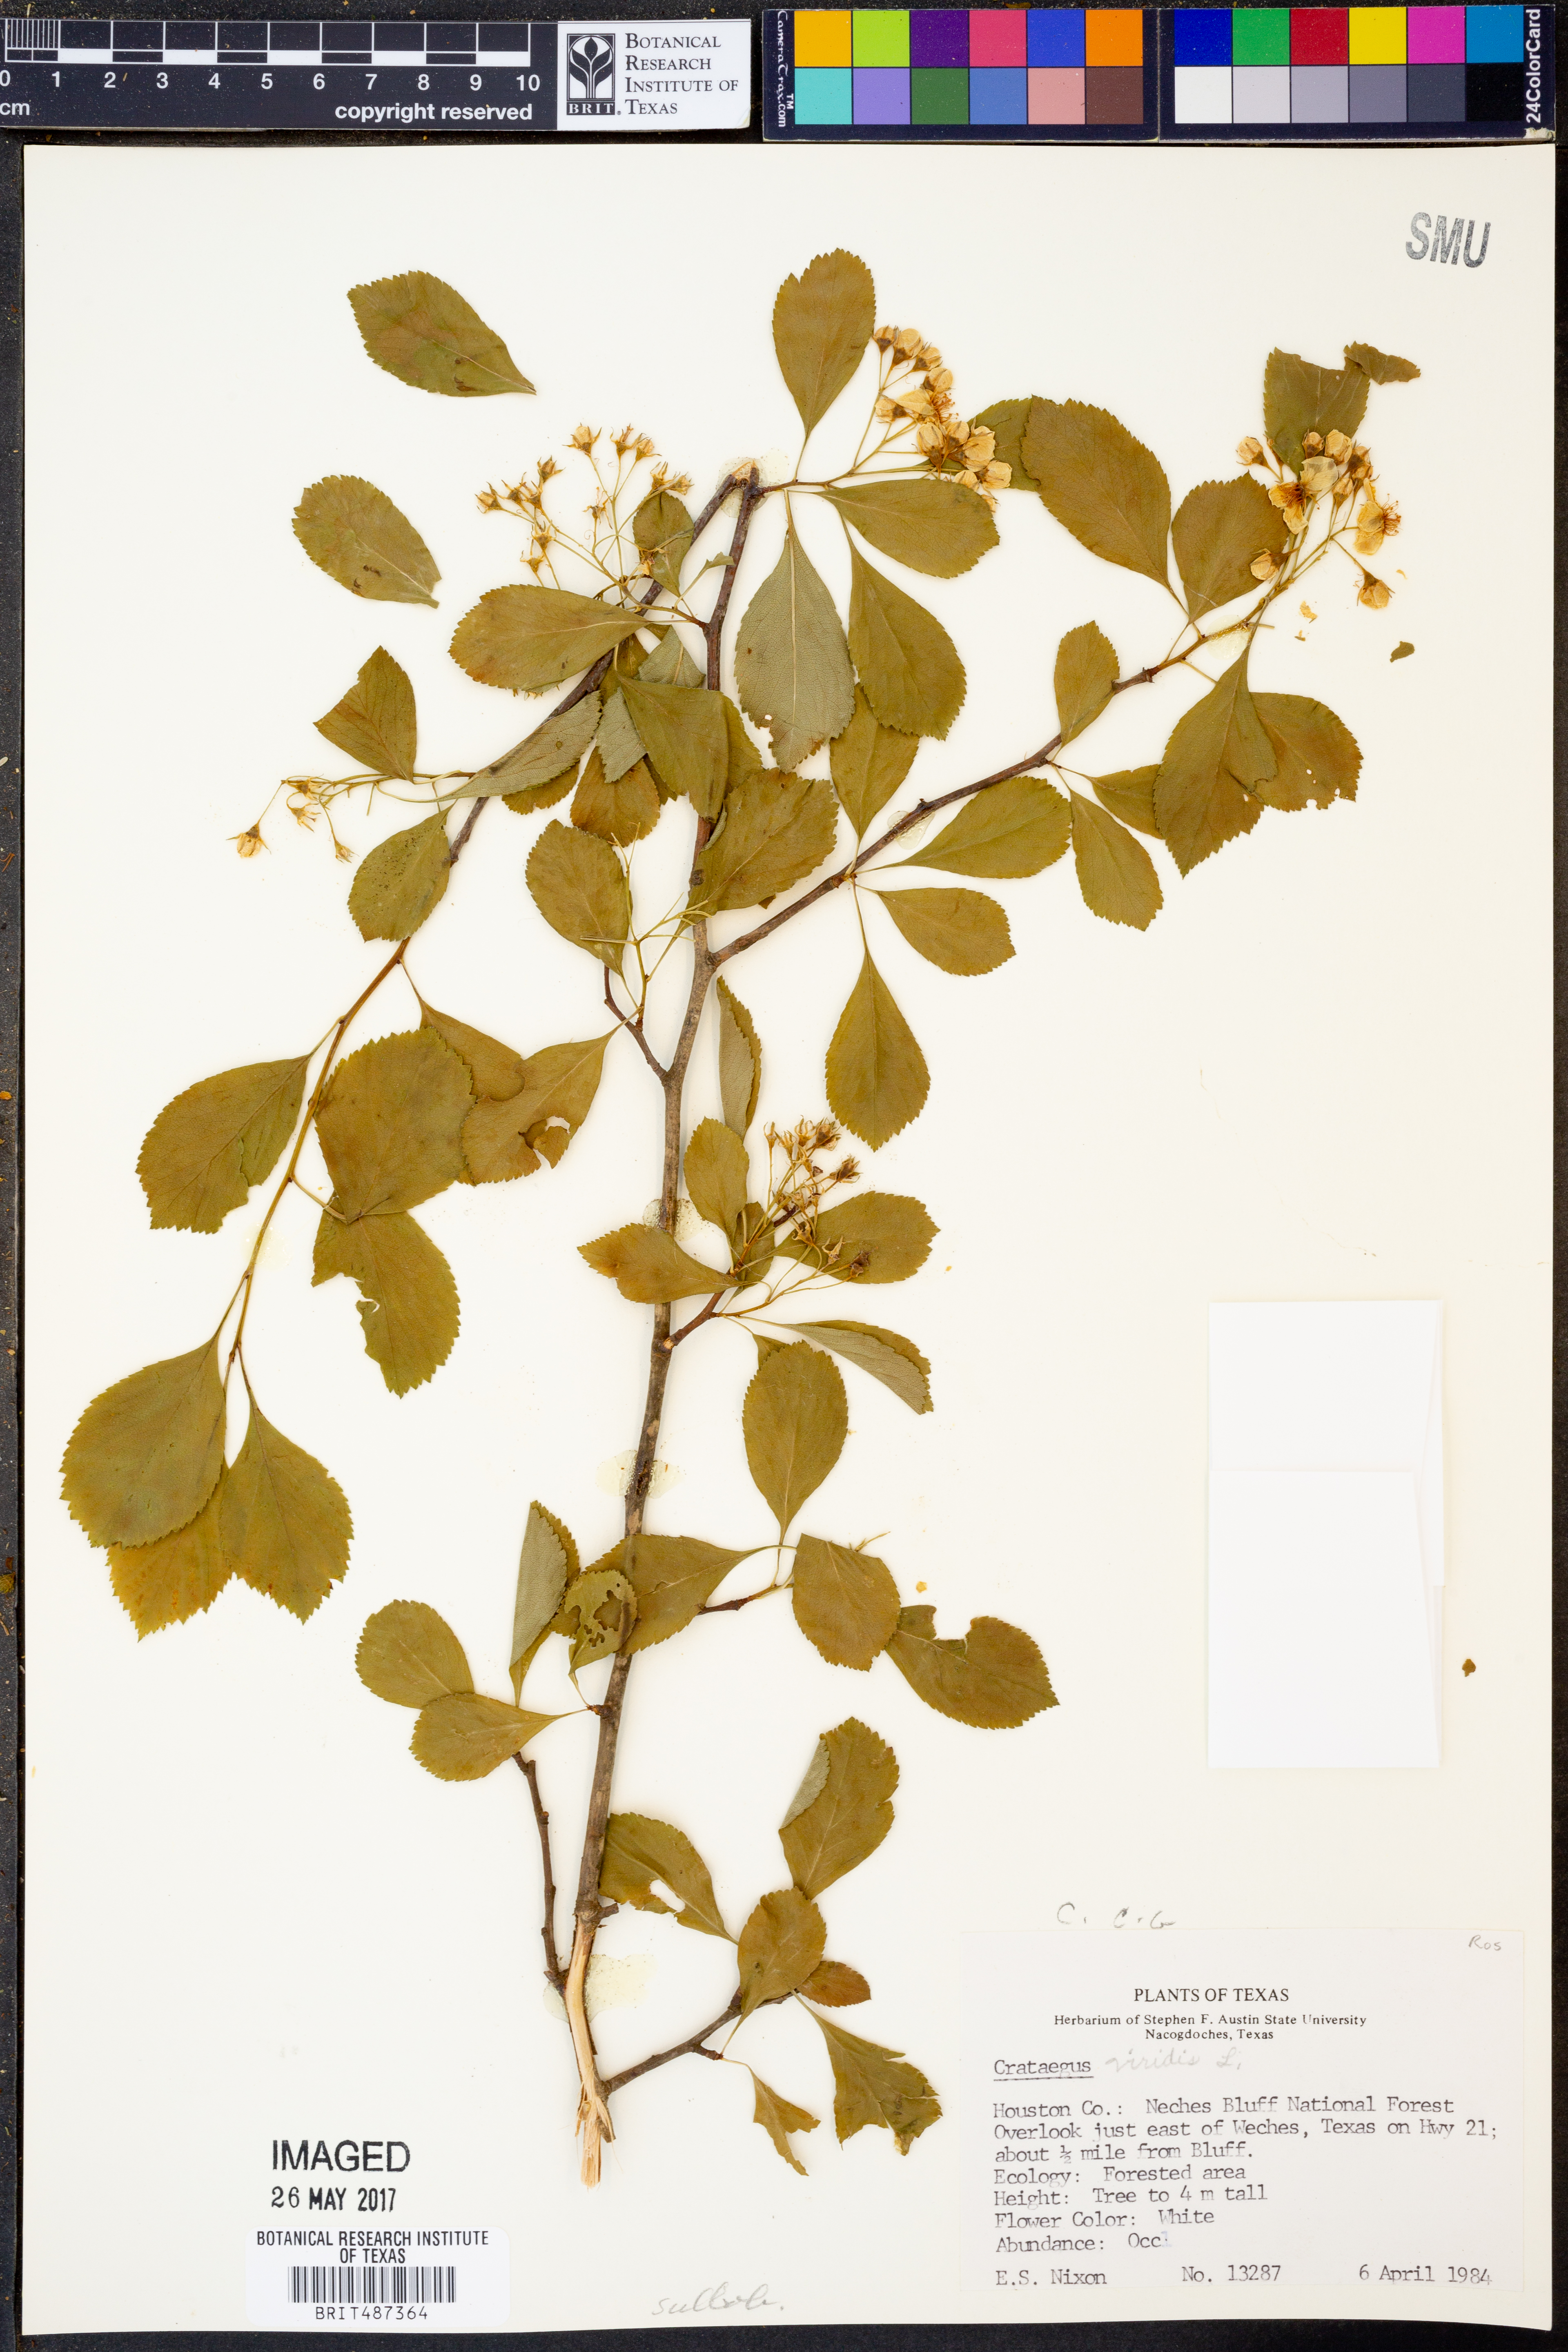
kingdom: Plantae
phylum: Tracheophyta
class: Magnoliopsida
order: Rosales
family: Rosaceae
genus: Crataegus
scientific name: Crataegus viridis
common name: Southernthorn
